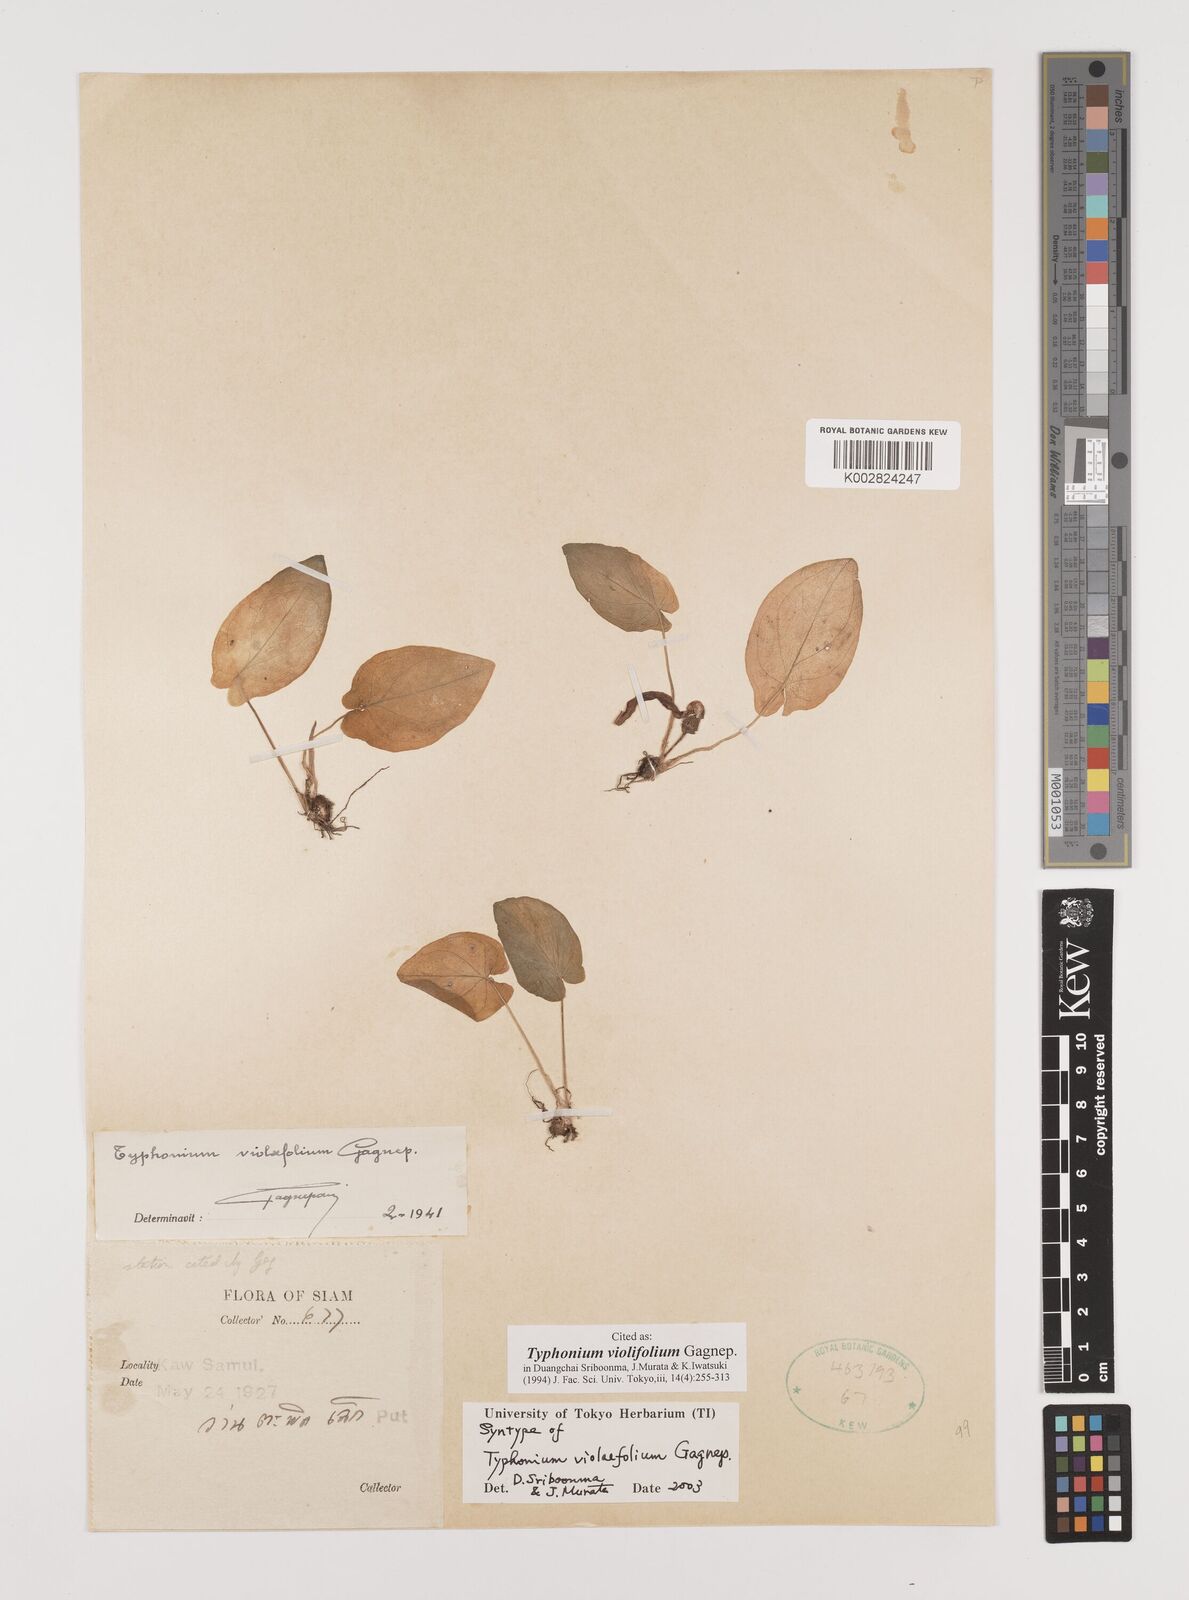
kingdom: Plantae
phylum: Tracheophyta
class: Liliopsida
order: Alismatales
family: Araceae
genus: Typhonium
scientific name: Typhonium violifolium
